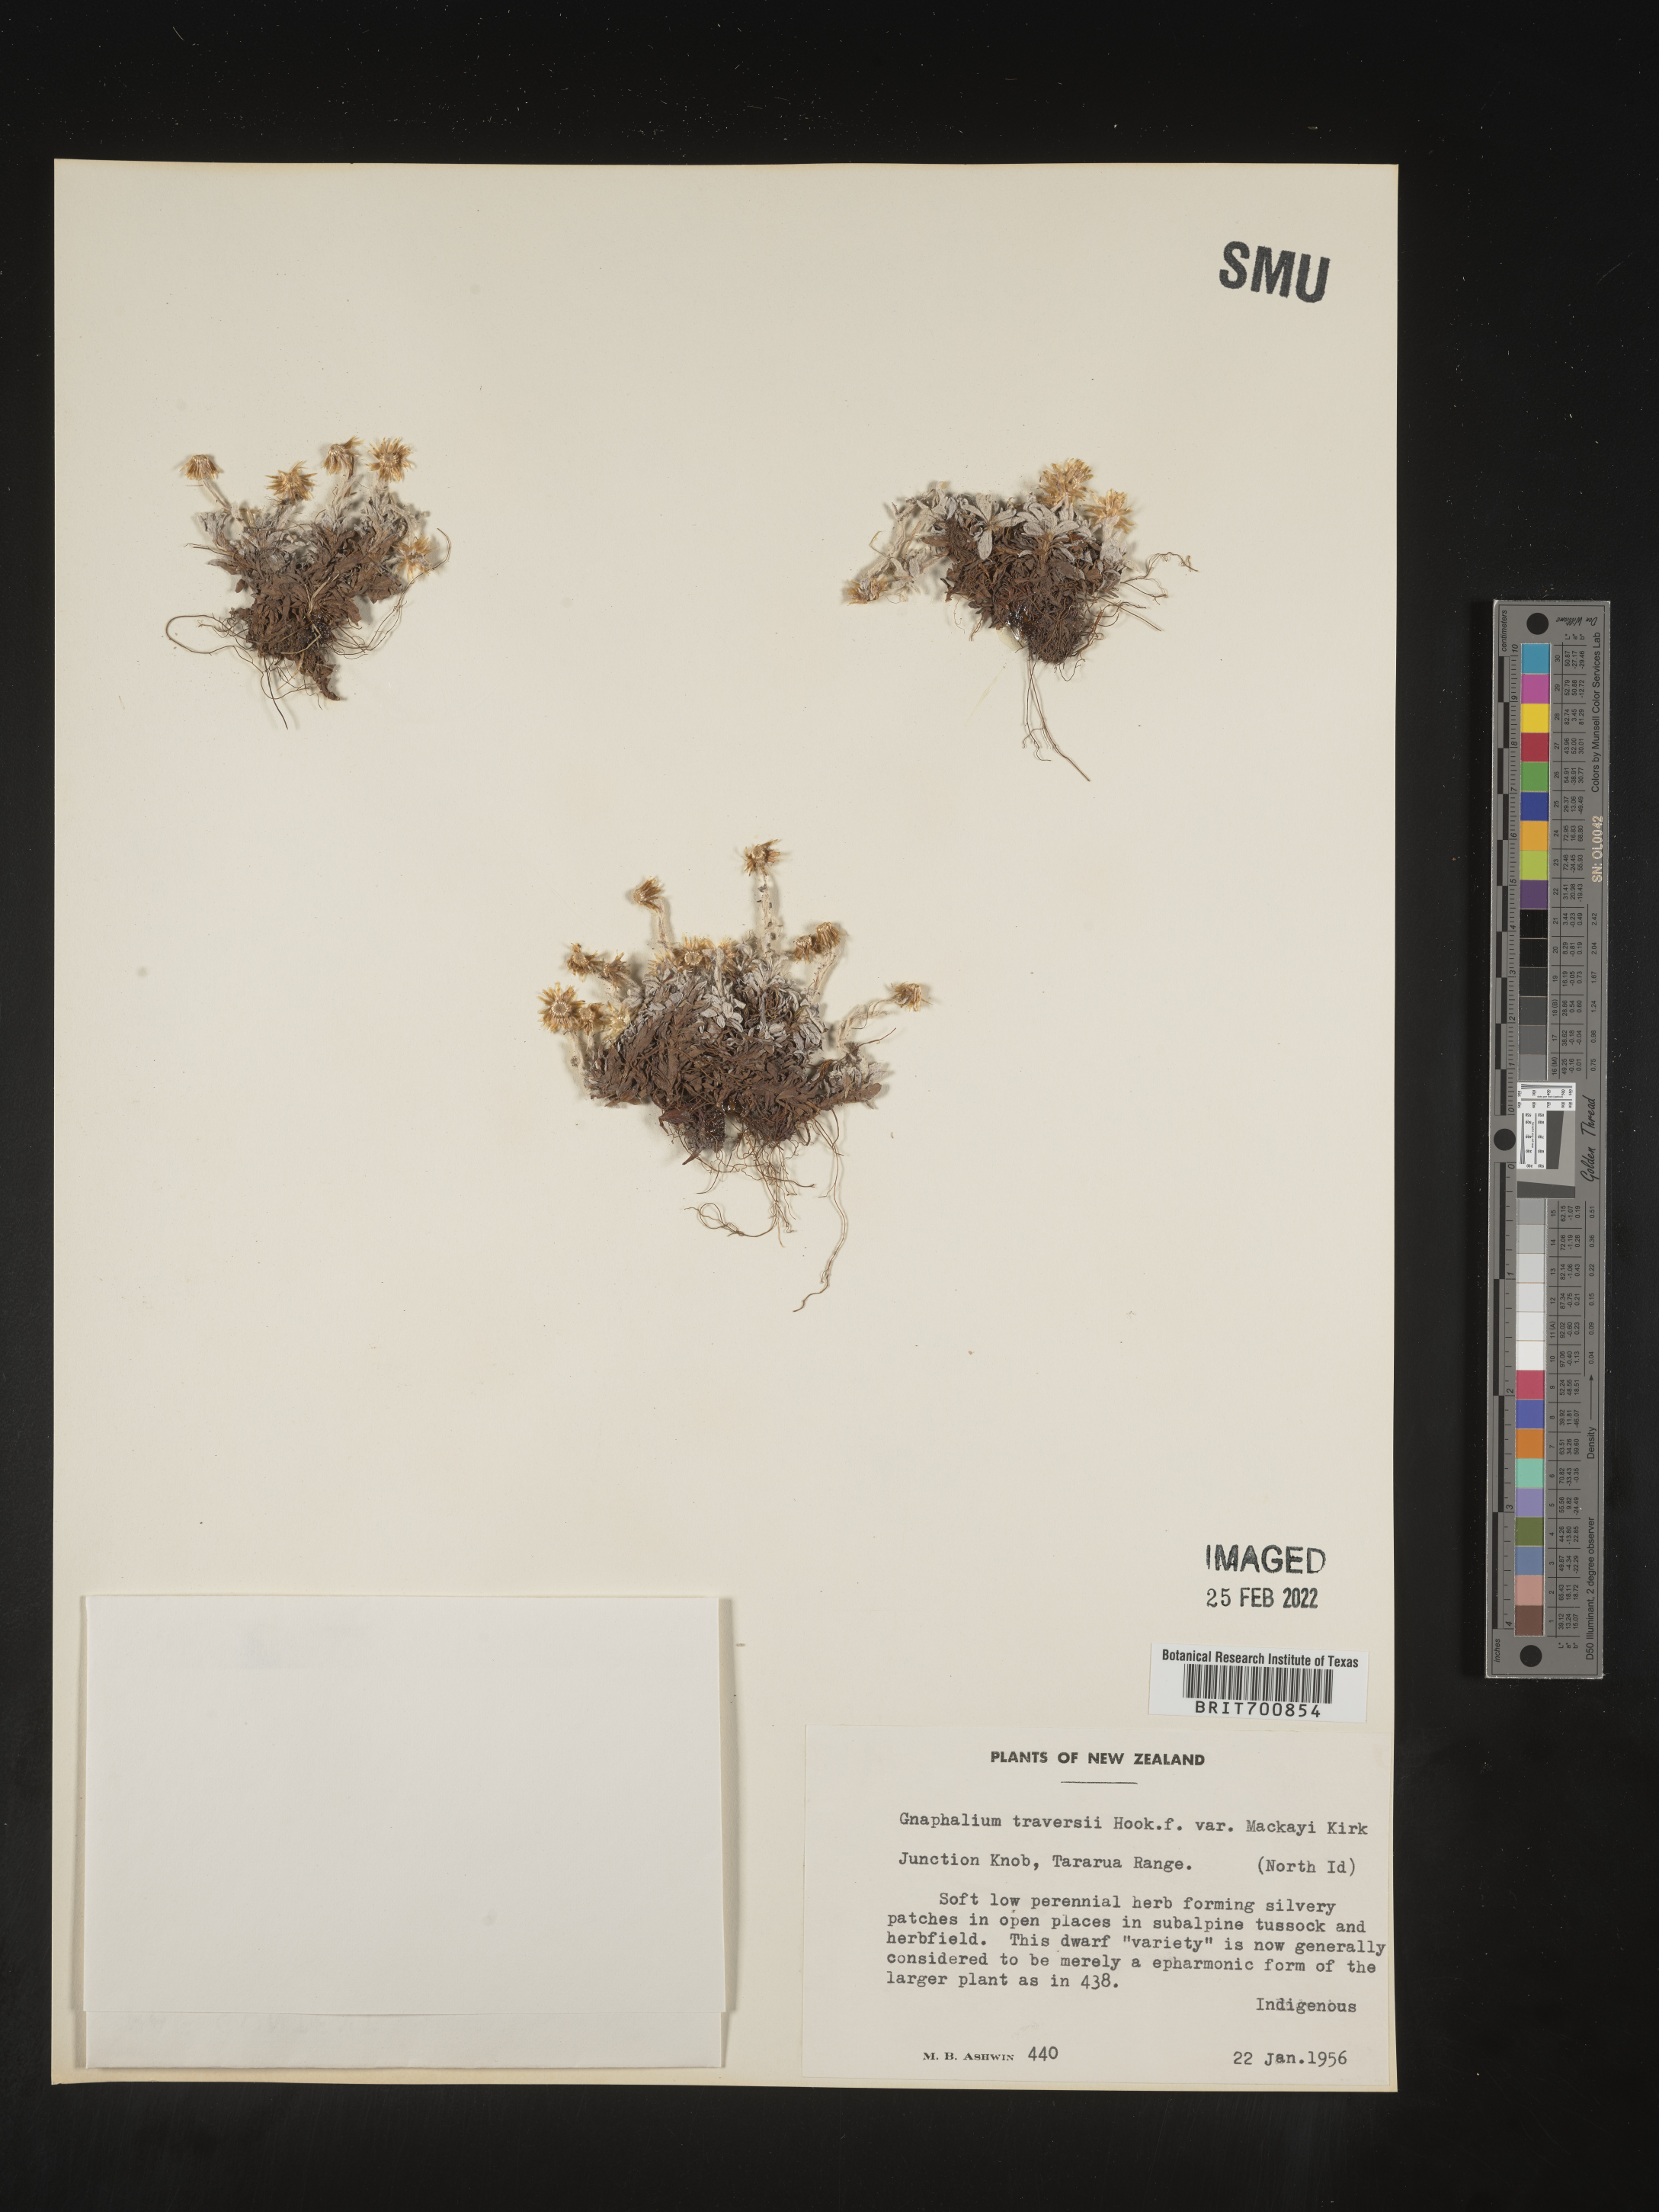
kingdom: Plantae
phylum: Tracheophyta
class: Magnoliopsida
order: Asterales
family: Asteraceae
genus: Euchiton
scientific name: Euchiton
